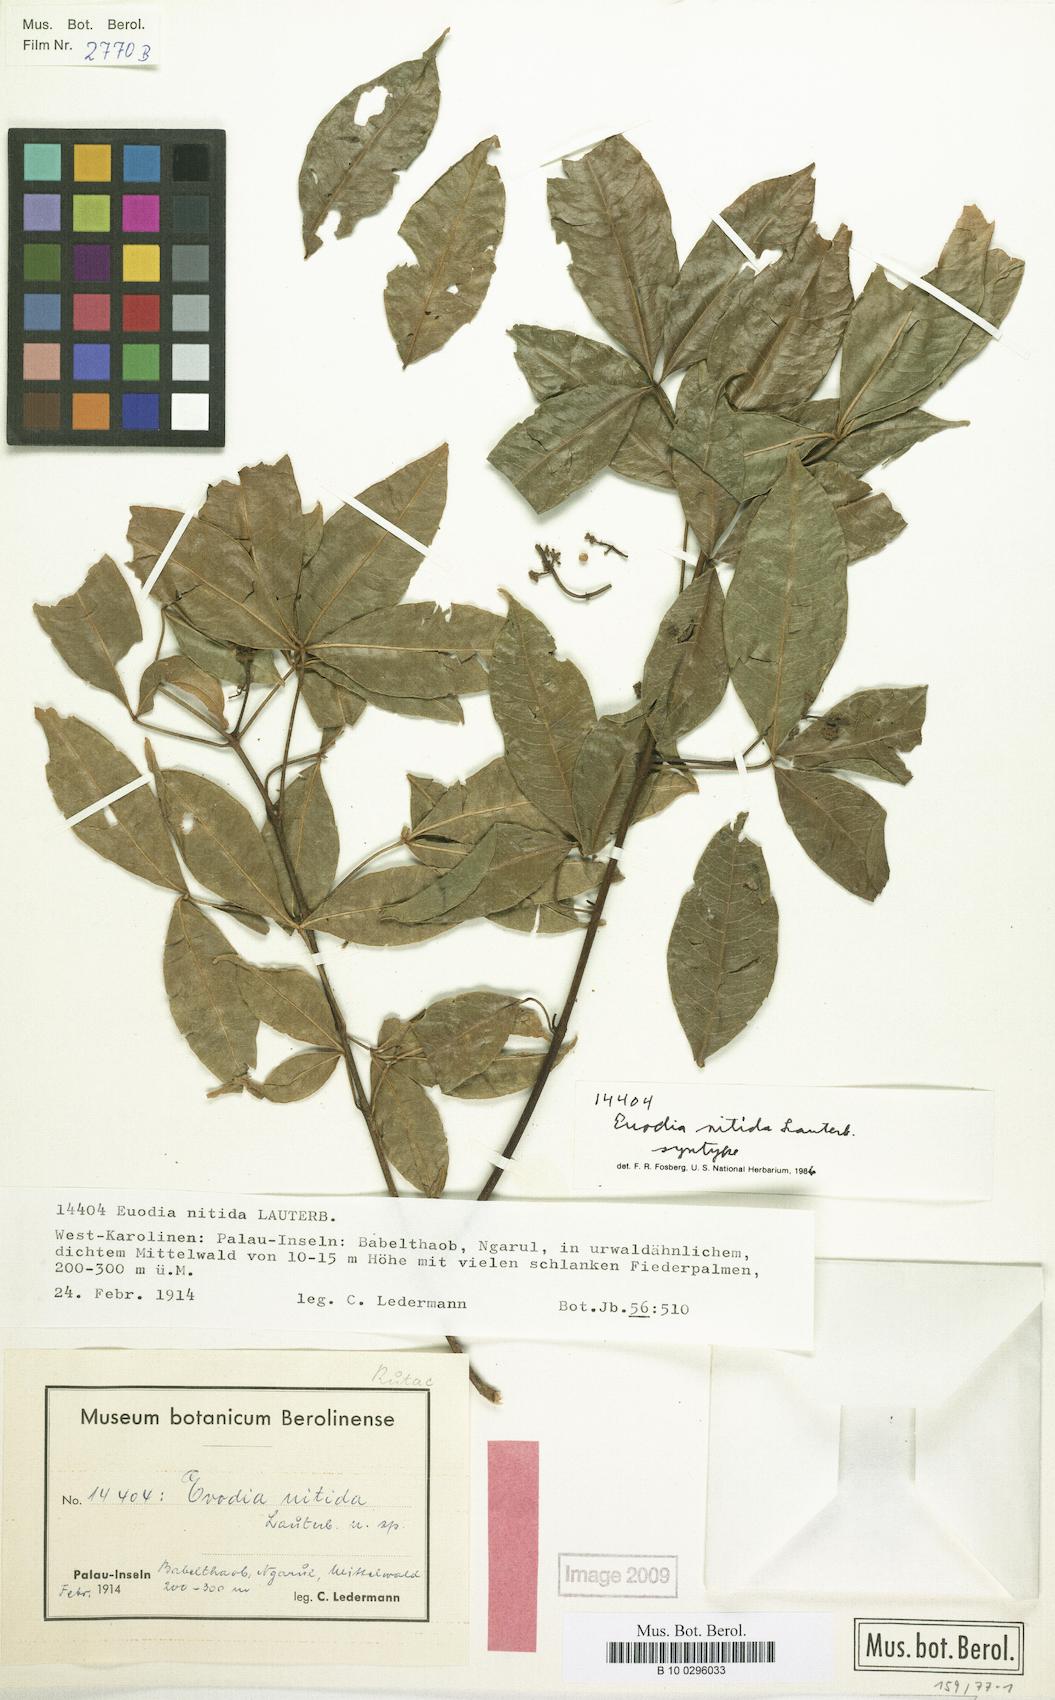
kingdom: Plantae
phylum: Tracheophyta
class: Magnoliopsida
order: Sapindales
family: Rutaceae
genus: Melicope
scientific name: Melicope denhamii
